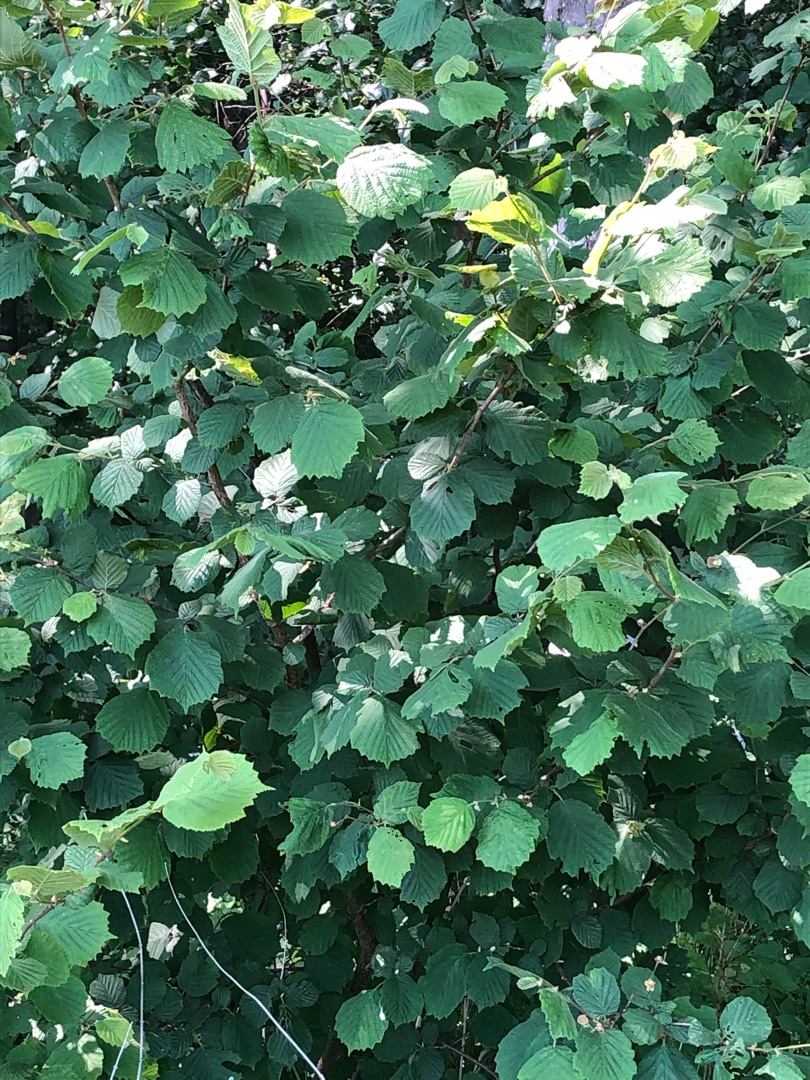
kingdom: Plantae
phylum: Tracheophyta
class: Magnoliopsida
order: Fagales
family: Betulaceae
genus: Corylus
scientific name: Corylus avellana
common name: Hassel
